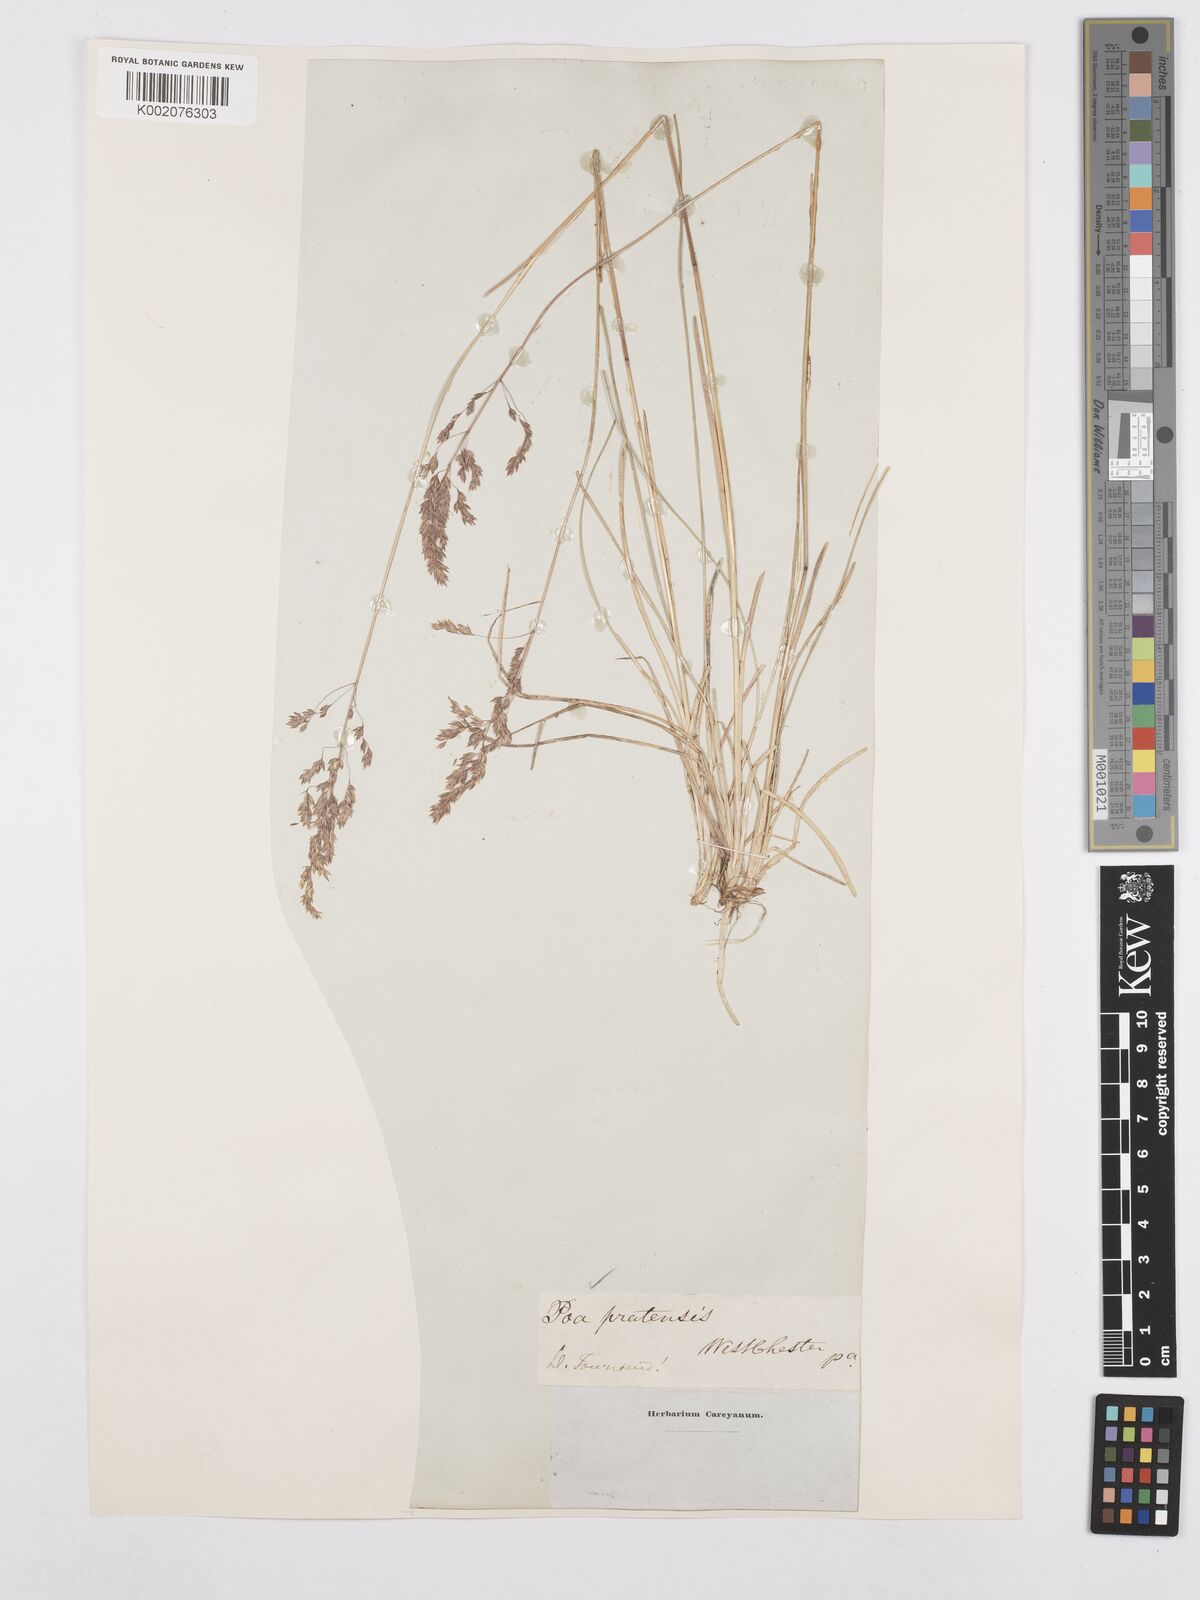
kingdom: Plantae
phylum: Tracheophyta
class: Liliopsida
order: Poales
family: Poaceae
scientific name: Poaceae
